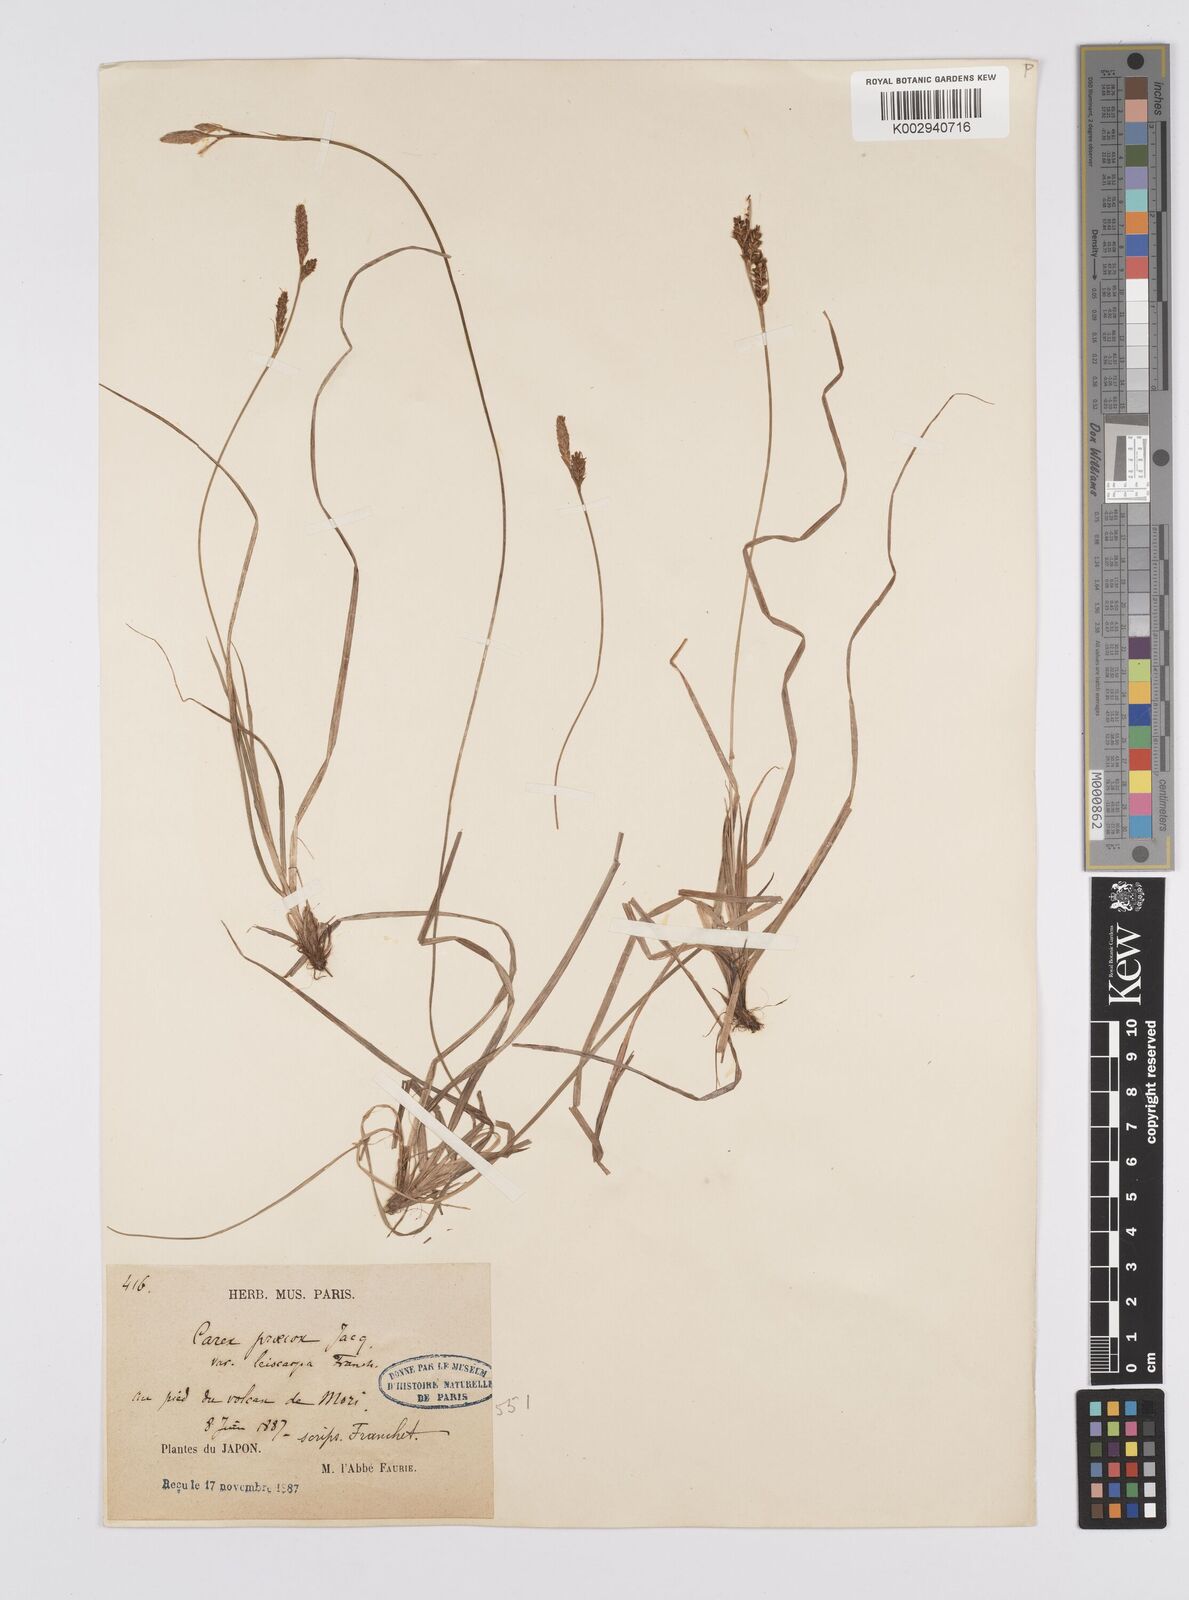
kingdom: Plantae
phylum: Tracheophyta
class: Liliopsida
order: Poales
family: Cyperaceae
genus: Carex
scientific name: Carex caryophyllea
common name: Spring sedge
